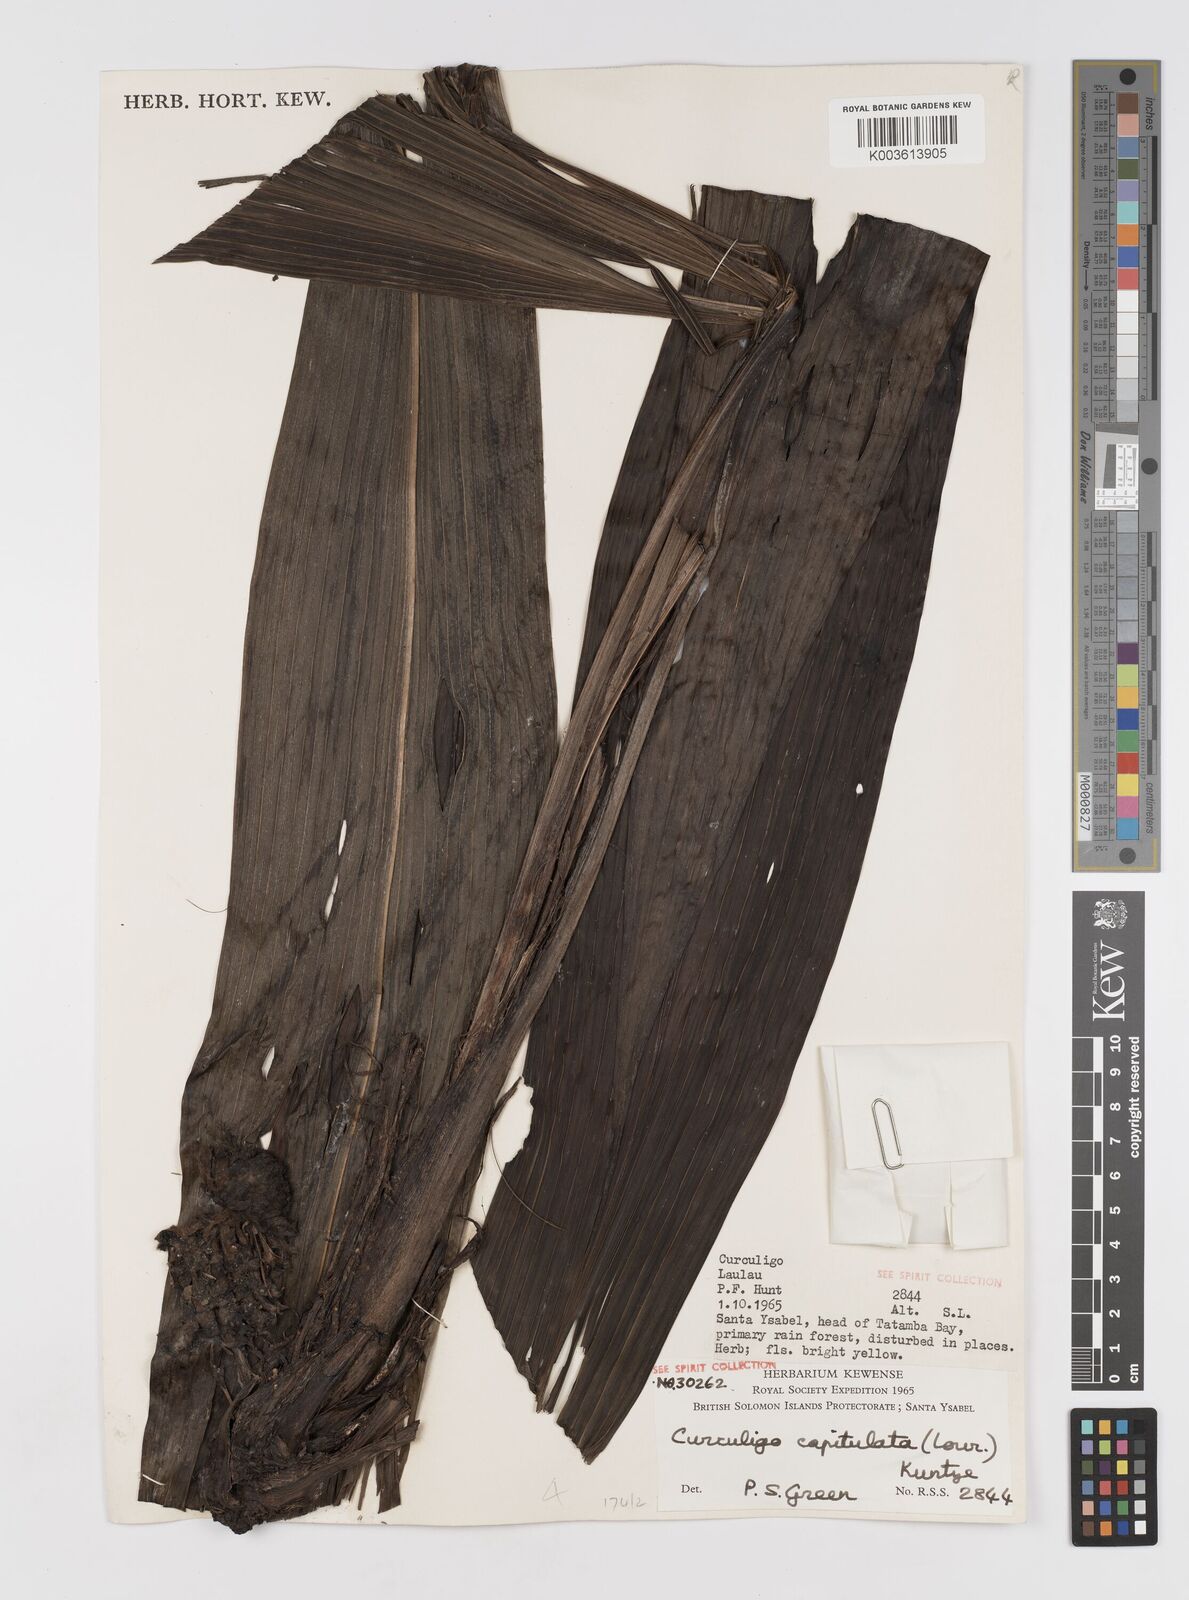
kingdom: Plantae
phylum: Tracheophyta
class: Liliopsida
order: Asparagales
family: Hypoxidaceae
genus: Curculigo
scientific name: Curculigo capitulata
